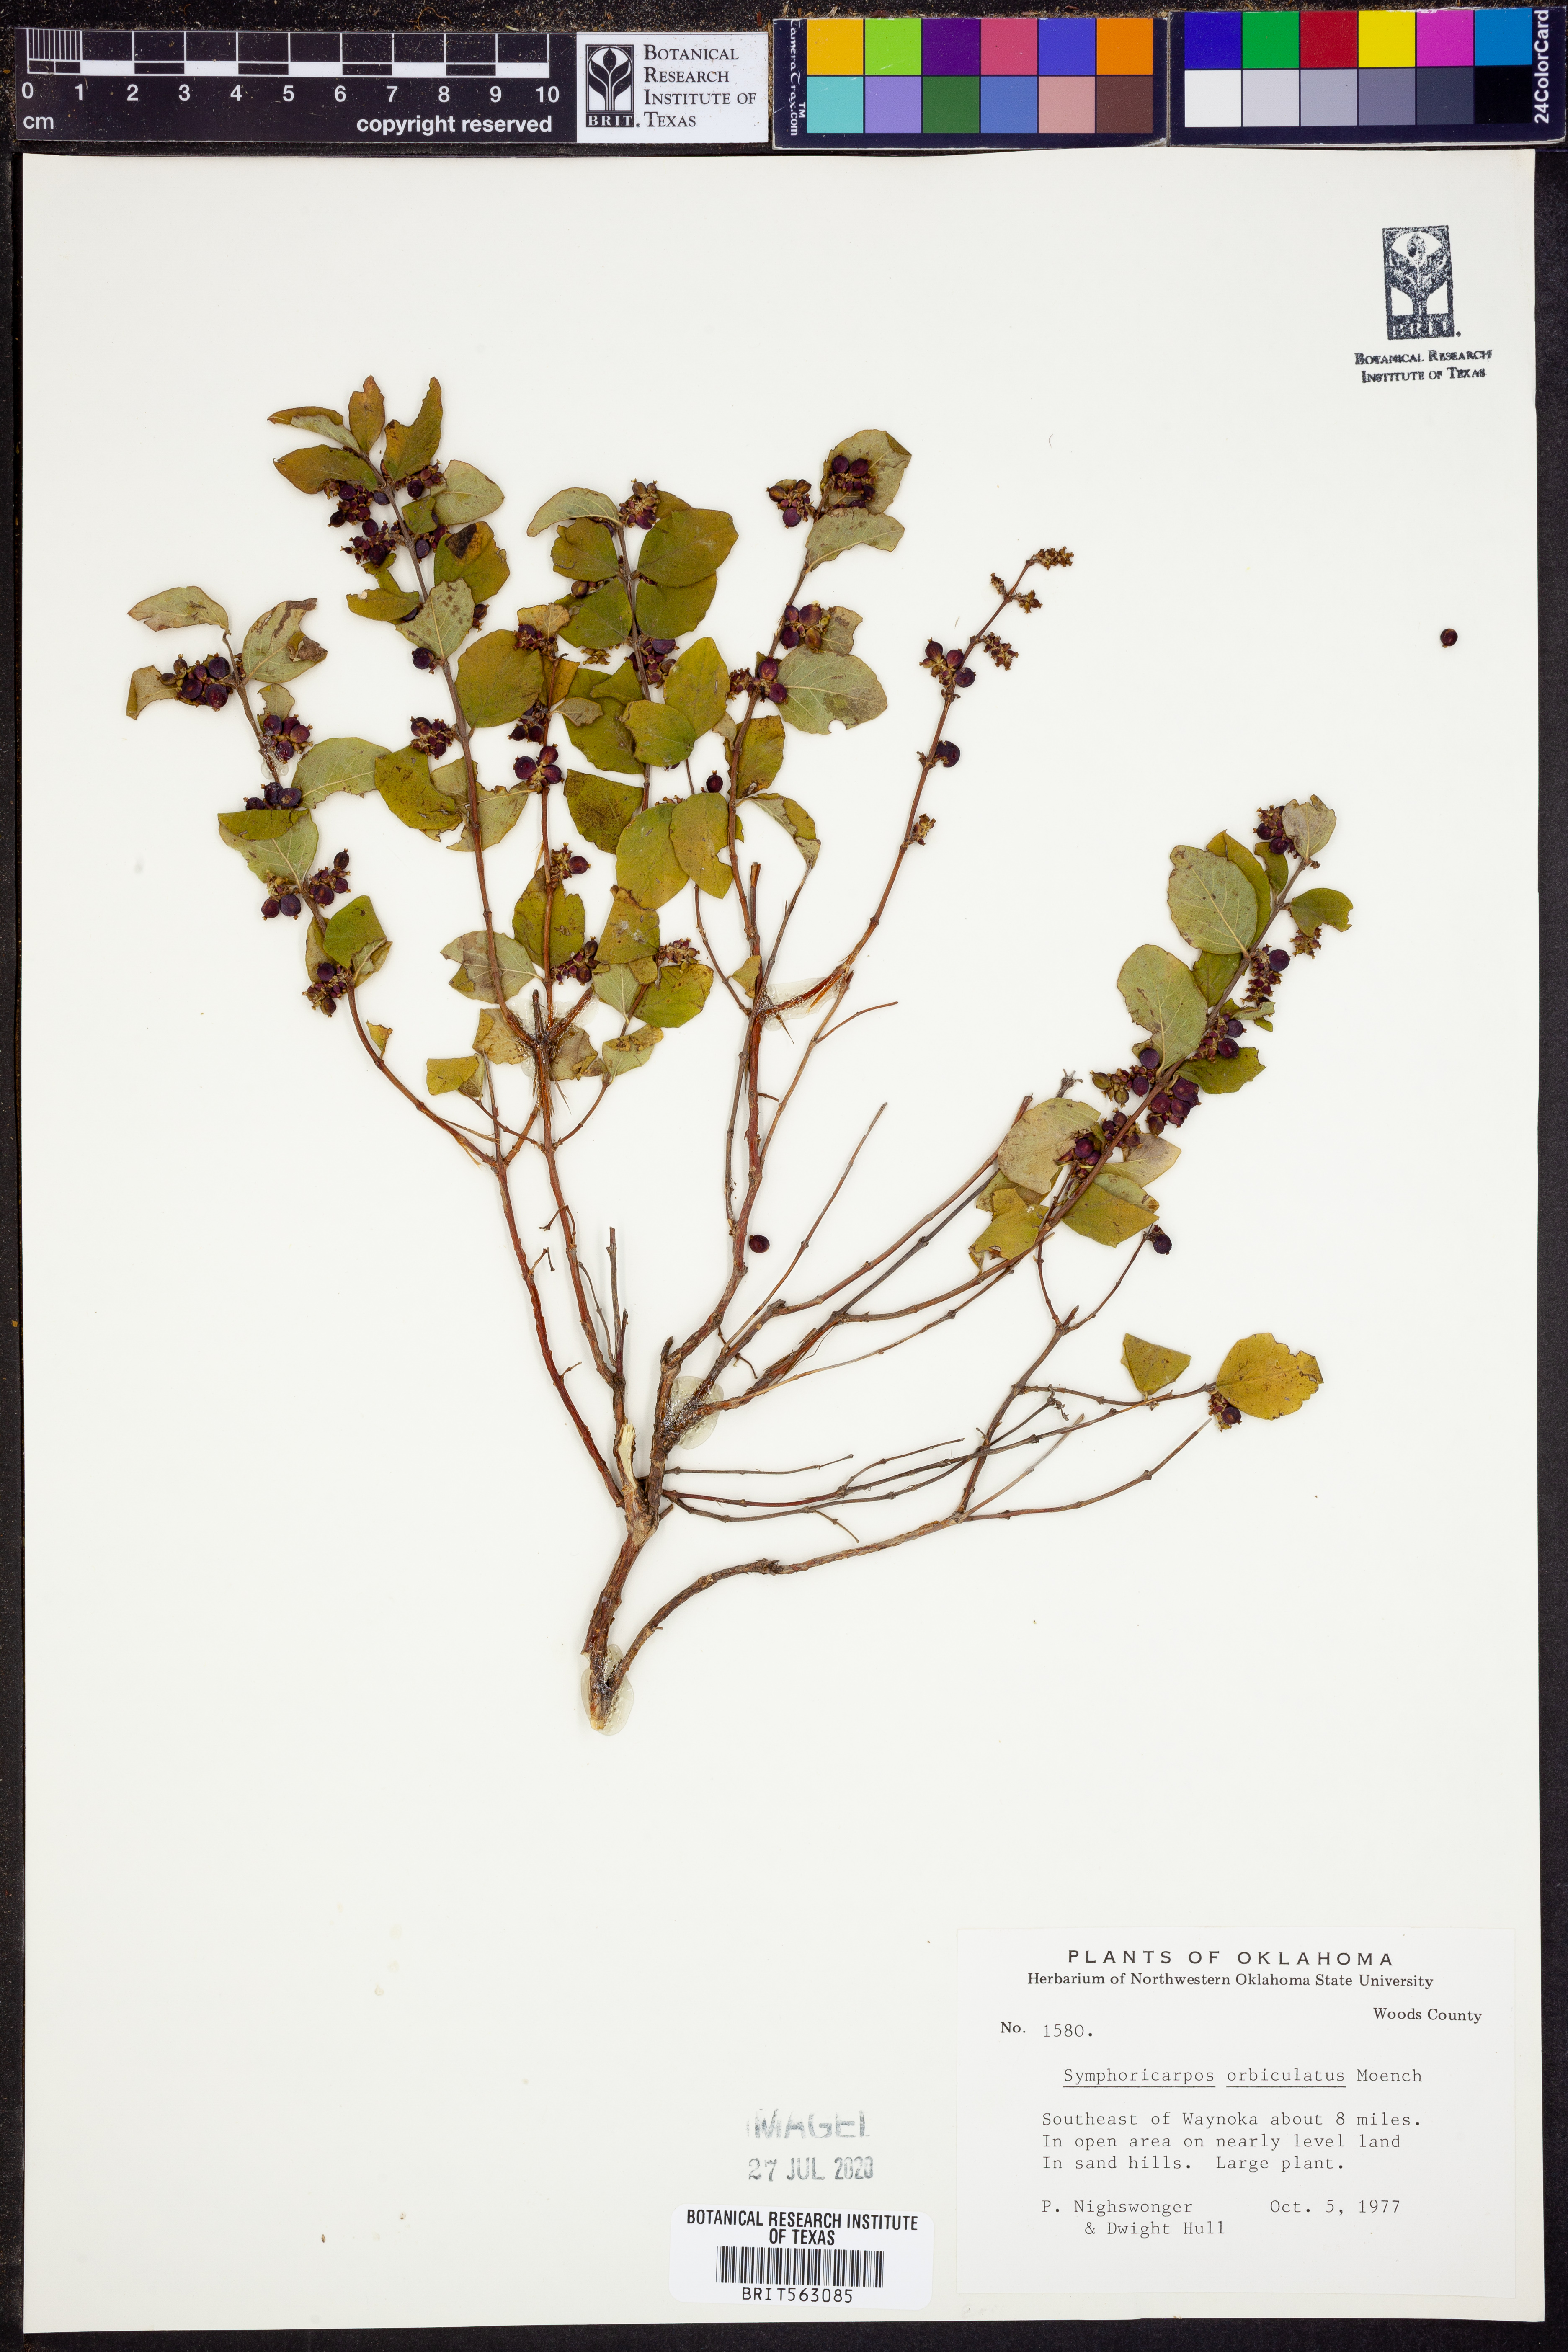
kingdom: Plantae
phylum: Tracheophyta
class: Magnoliopsida
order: Dipsacales
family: Caprifoliaceae
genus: Symphoricarpos
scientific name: Symphoricarpos orbiculatus
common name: Coralberry
